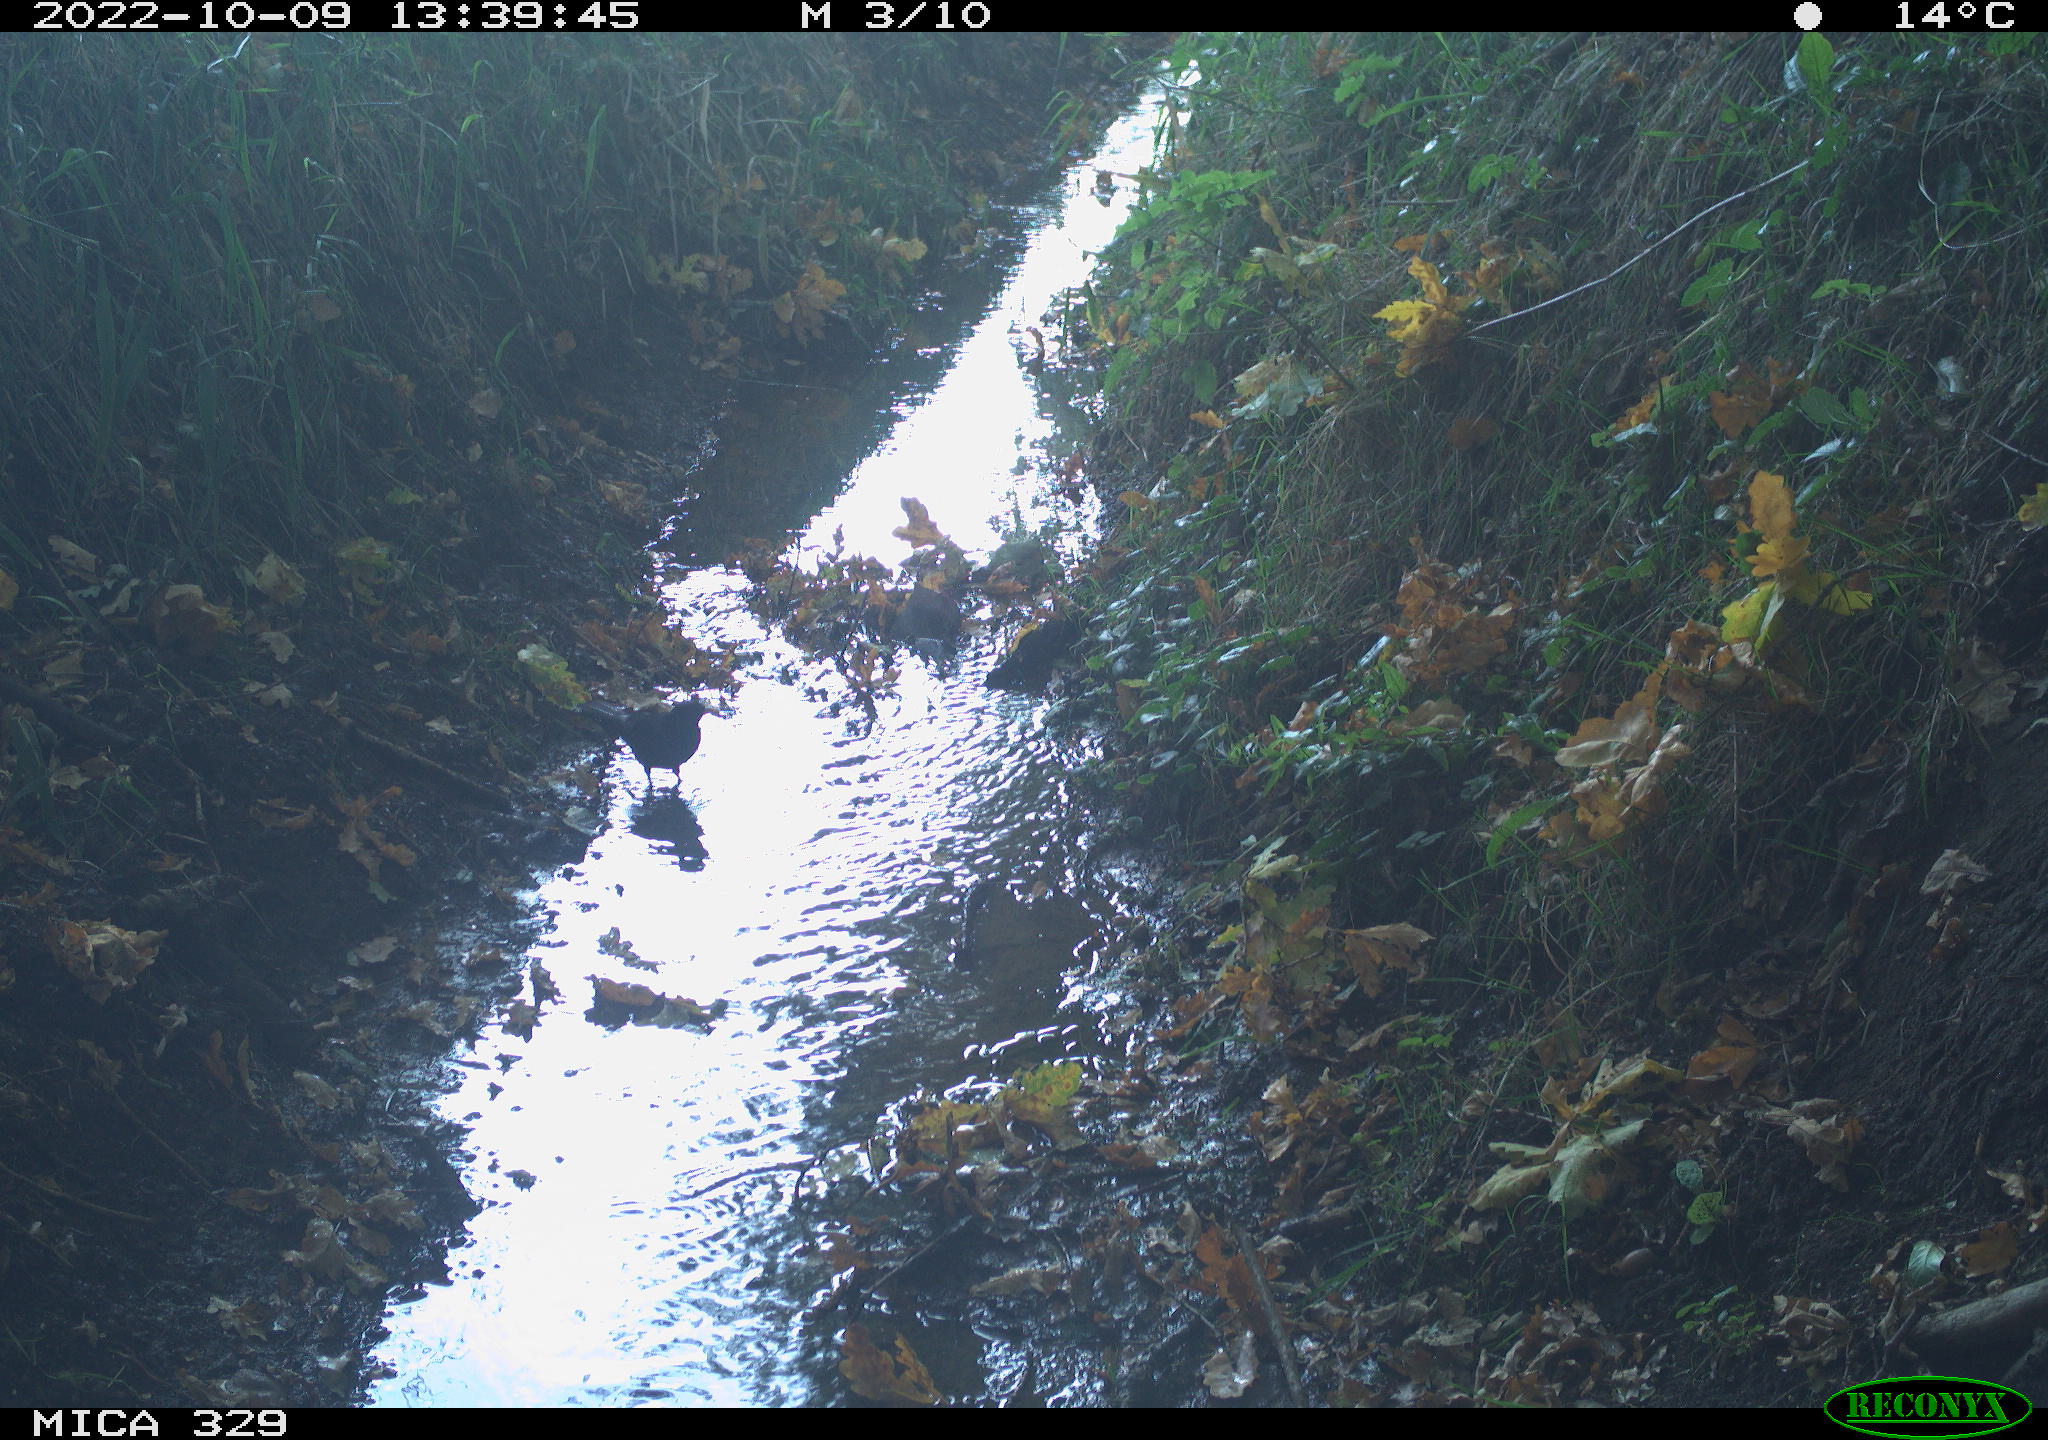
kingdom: Animalia
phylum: Chordata
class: Aves
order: Passeriformes
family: Turdidae
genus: Turdus
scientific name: Turdus merula
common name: Common blackbird
